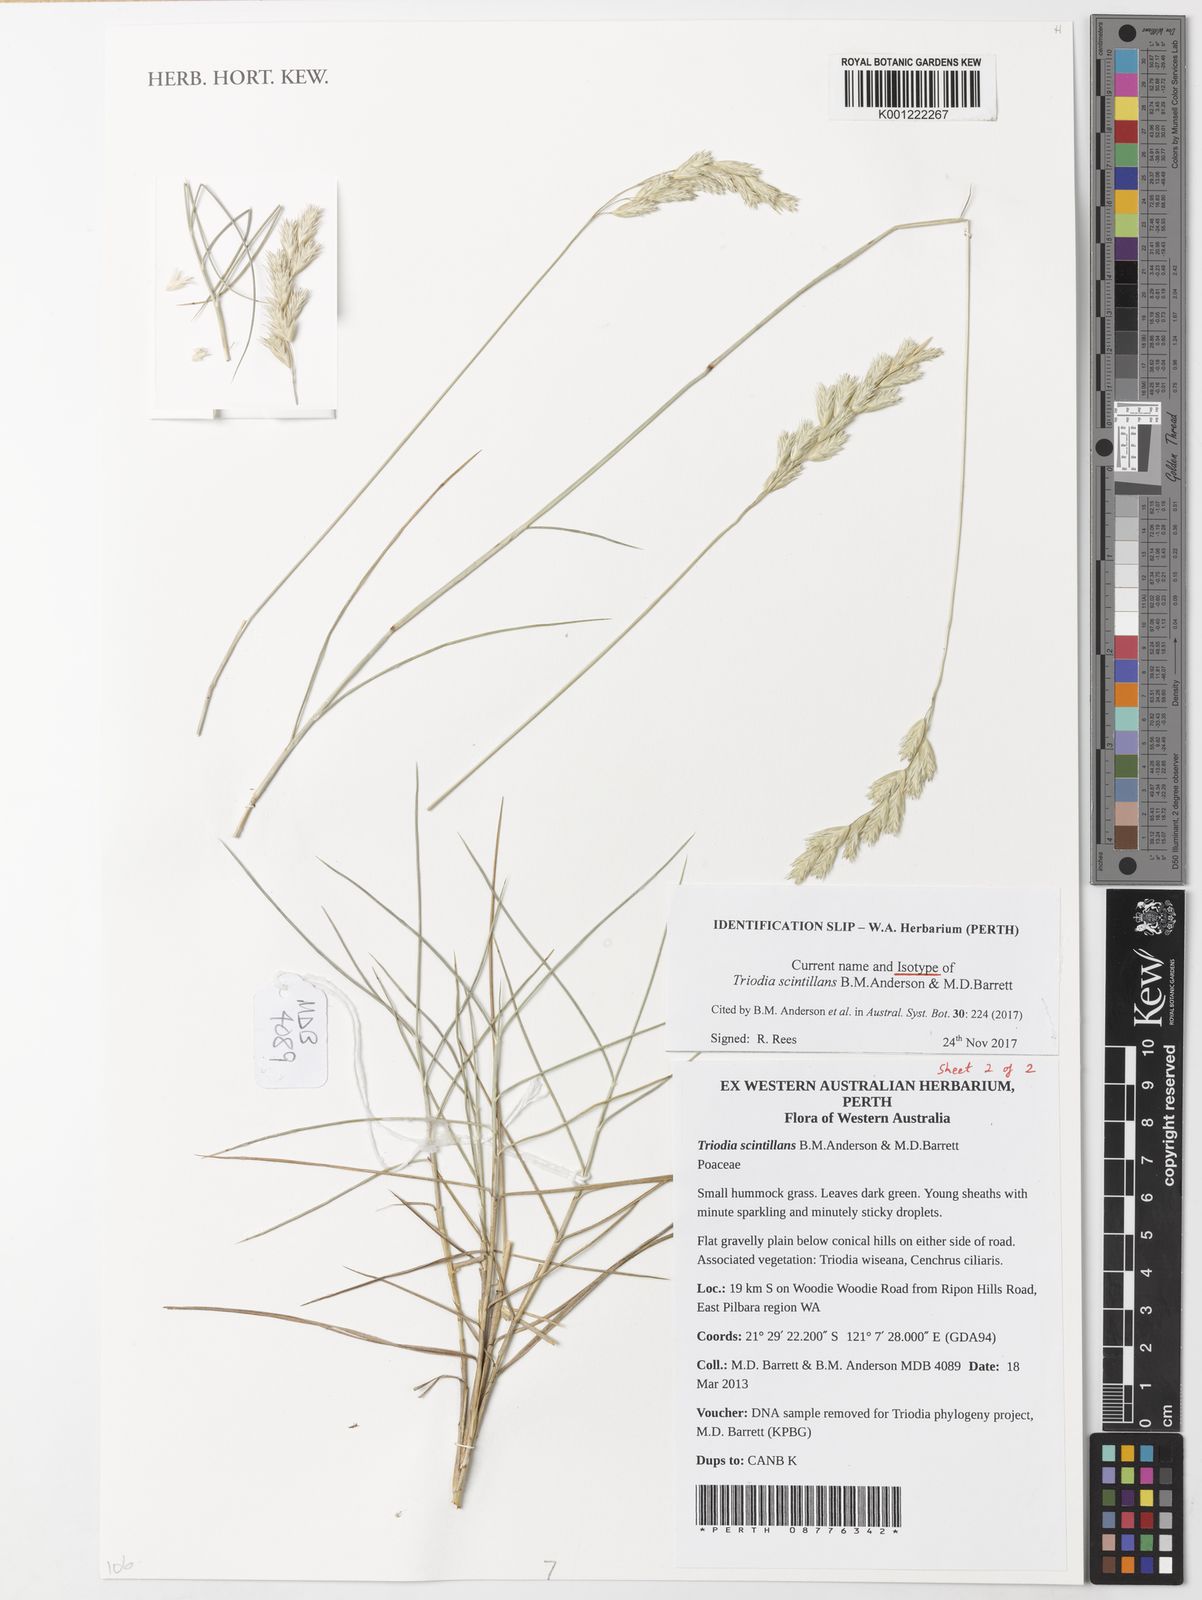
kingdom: Plantae
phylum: Tracheophyta
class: Liliopsida
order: Poales
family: Poaceae
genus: Triodia
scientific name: Triodia scintillans
